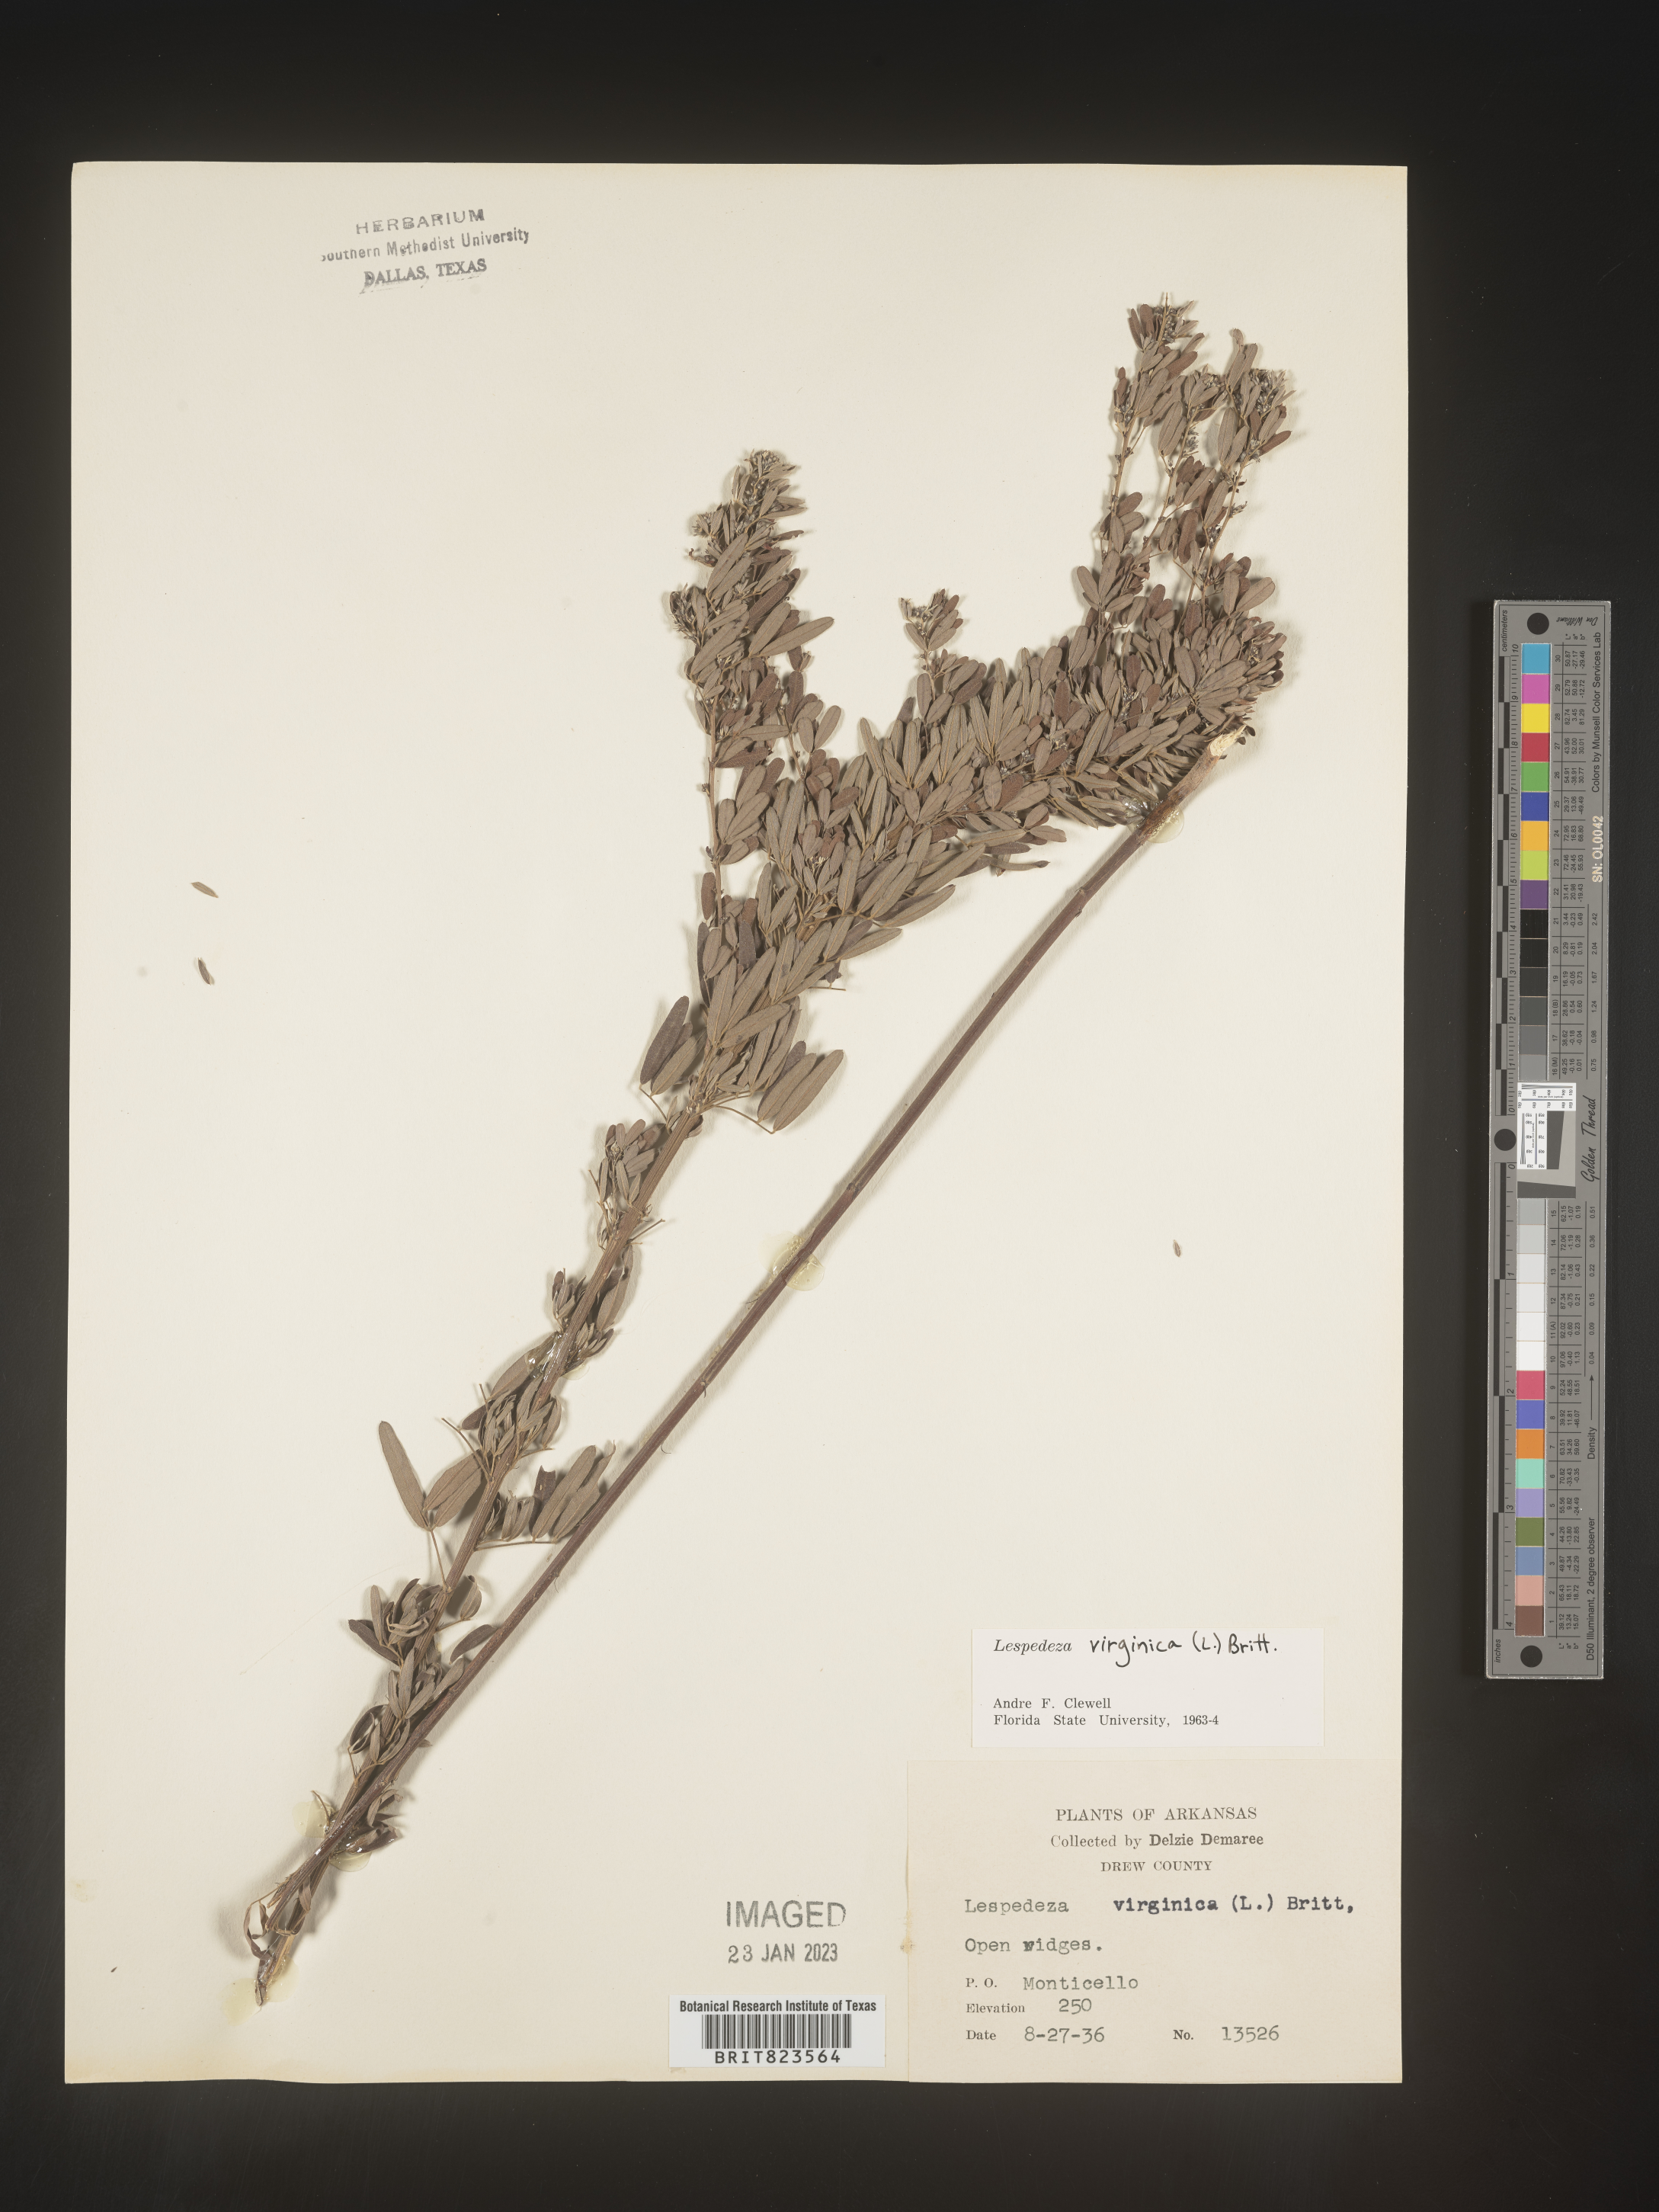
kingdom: Plantae
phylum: Tracheophyta
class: Magnoliopsida
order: Fabales
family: Fabaceae
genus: Lespedeza
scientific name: Lespedeza virginica
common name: Slender bush-clover
